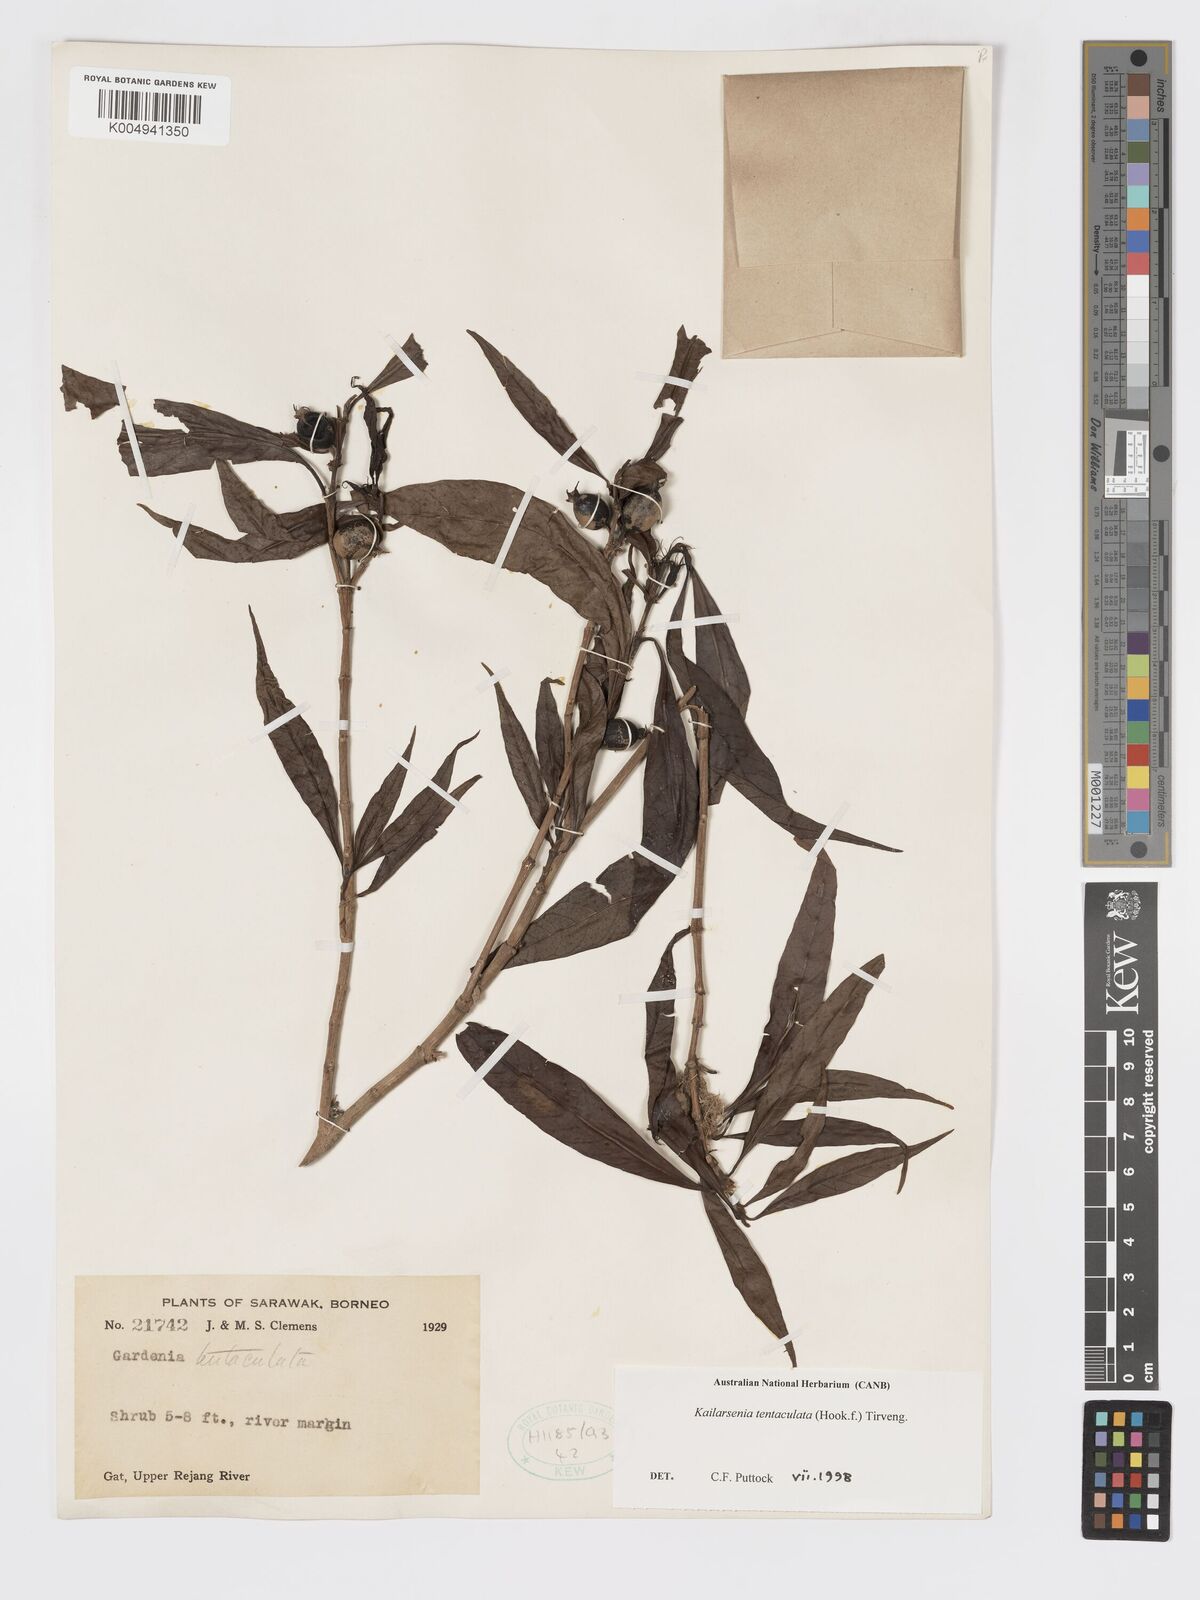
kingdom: Plantae
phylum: Tracheophyta
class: Magnoliopsida
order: Gentianales
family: Rubiaceae
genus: Kailarsenia
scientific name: Kailarsenia tentaculata
